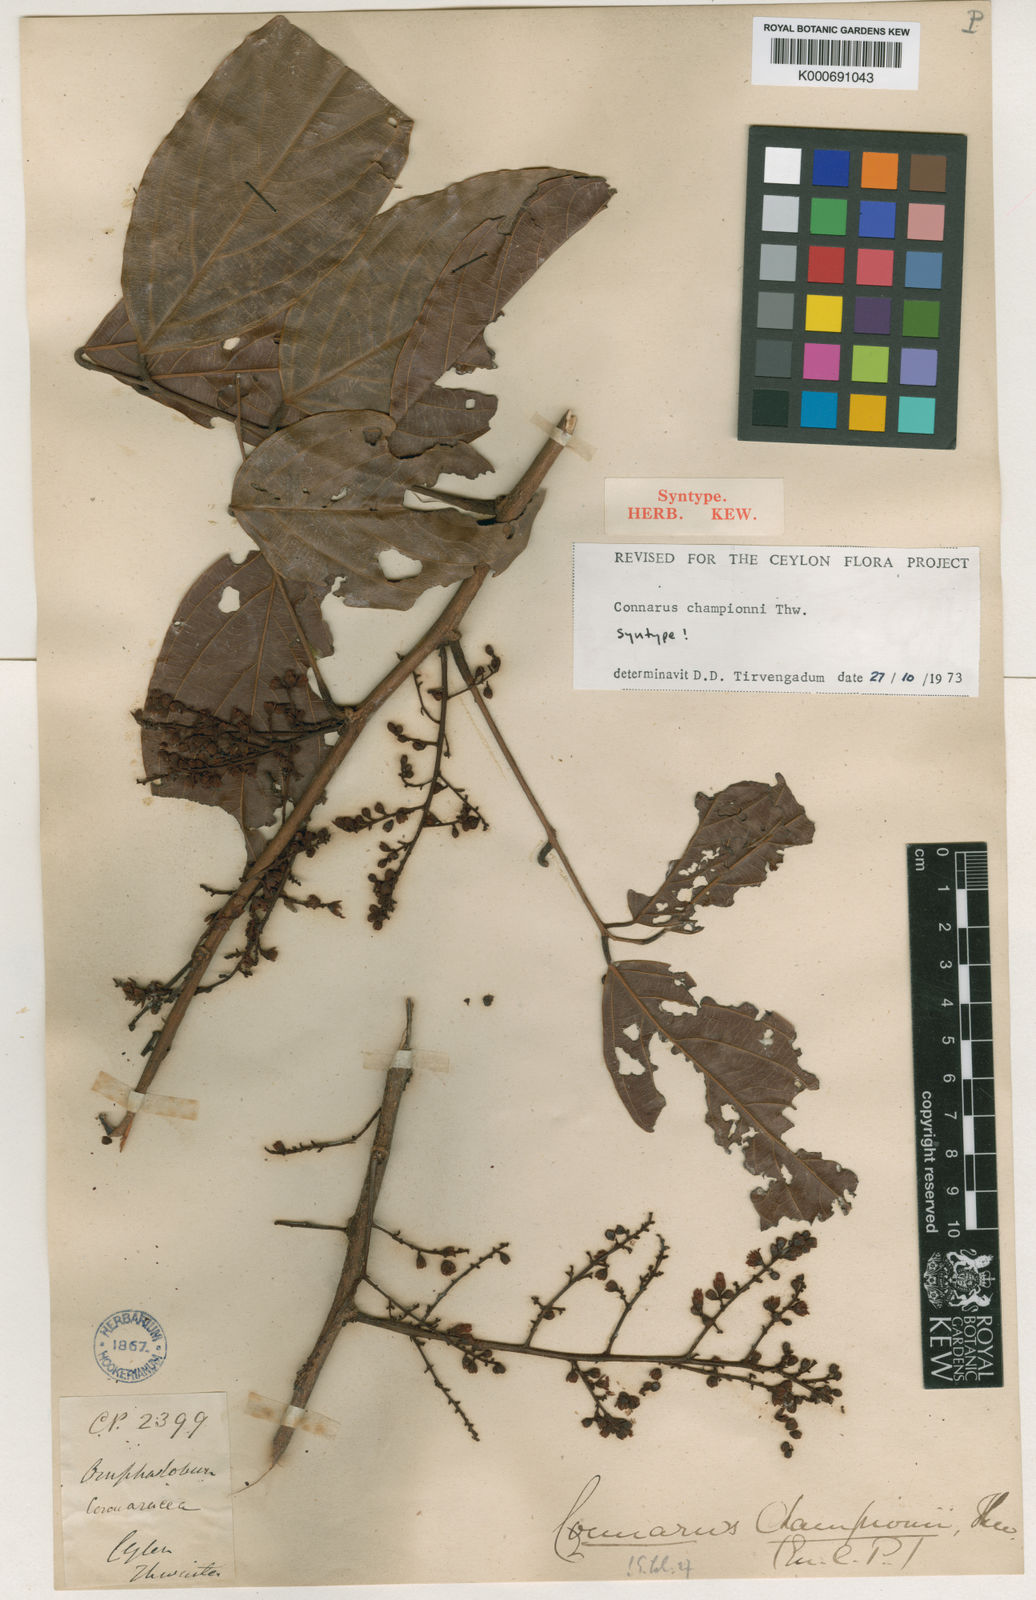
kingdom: Plantae
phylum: Tracheophyta
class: Magnoliopsida
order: Oxalidales
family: Connaraceae
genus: Connarus
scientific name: Connarus championii
